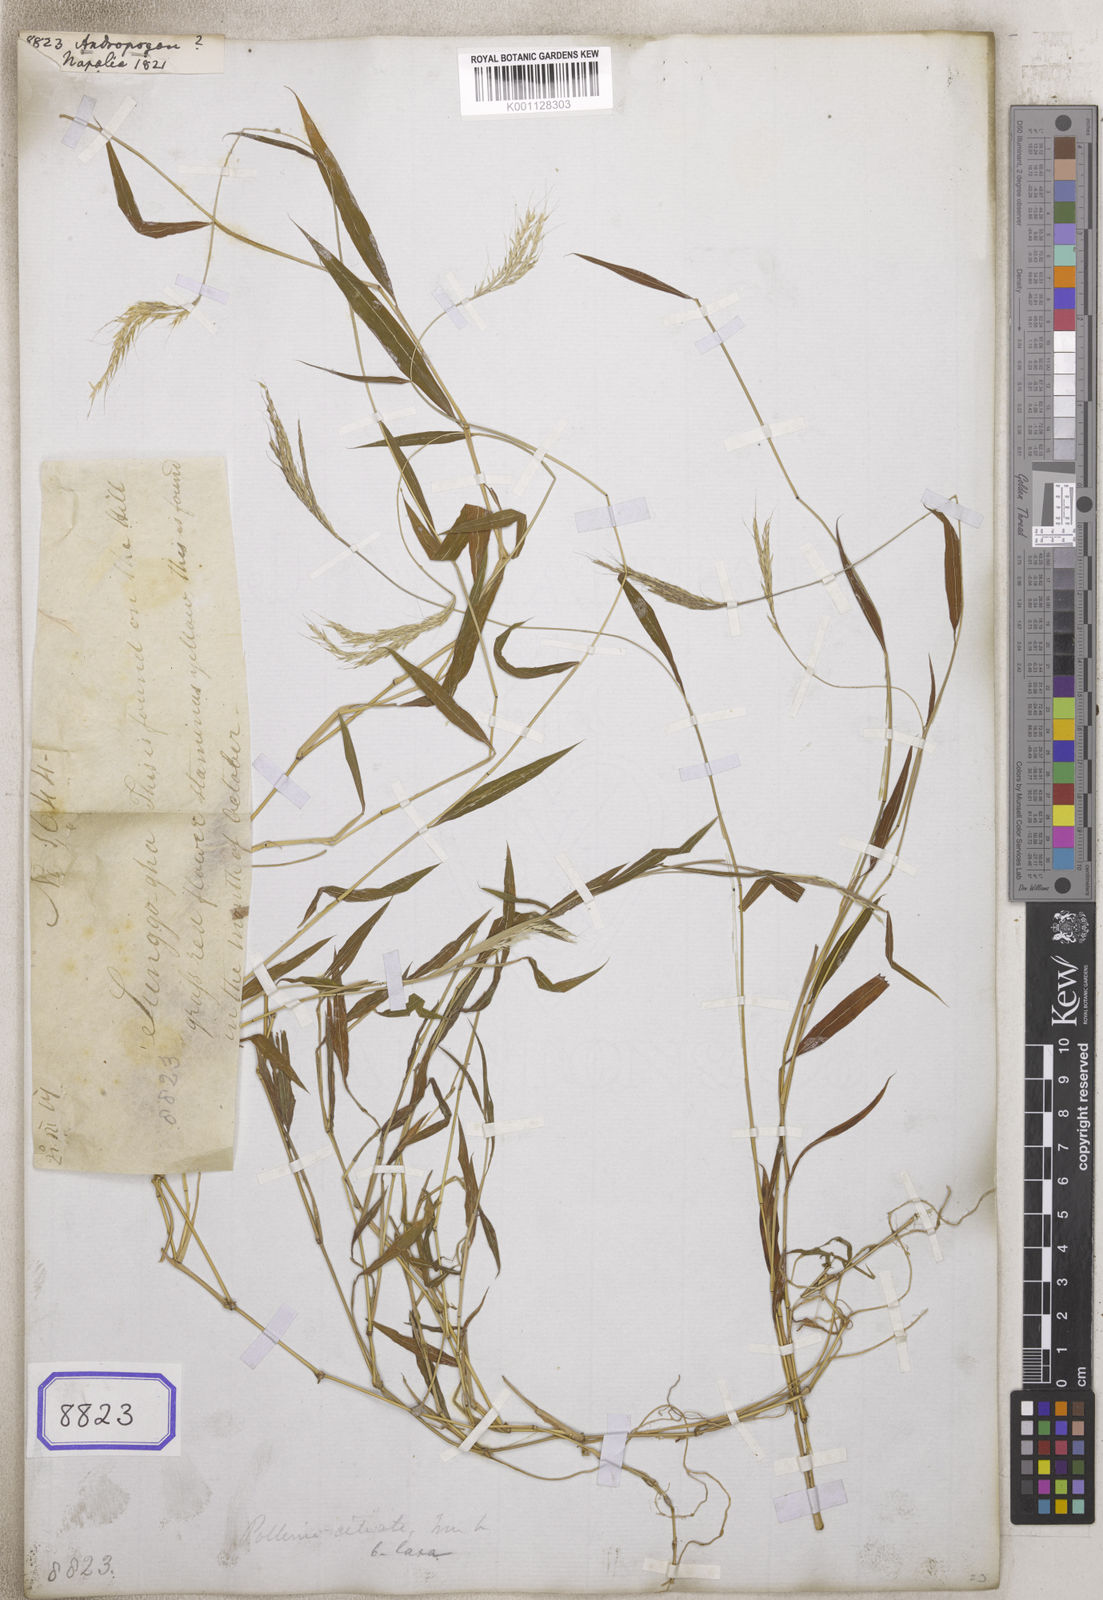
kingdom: Plantae
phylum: Tracheophyta
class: Liliopsida
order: Poales
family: Poaceae
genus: Andropogon
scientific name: Andropogon
